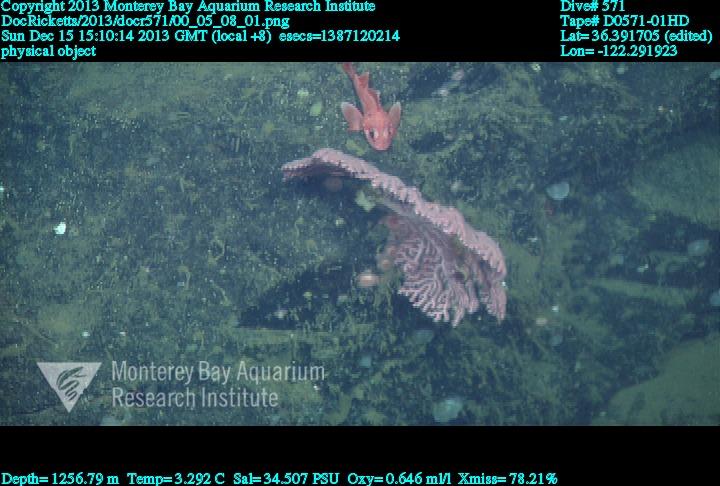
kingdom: Animalia
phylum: Cnidaria
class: Anthozoa
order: Scleralcyonacea
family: Coralliidae
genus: Paragorgia
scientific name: Paragorgia
